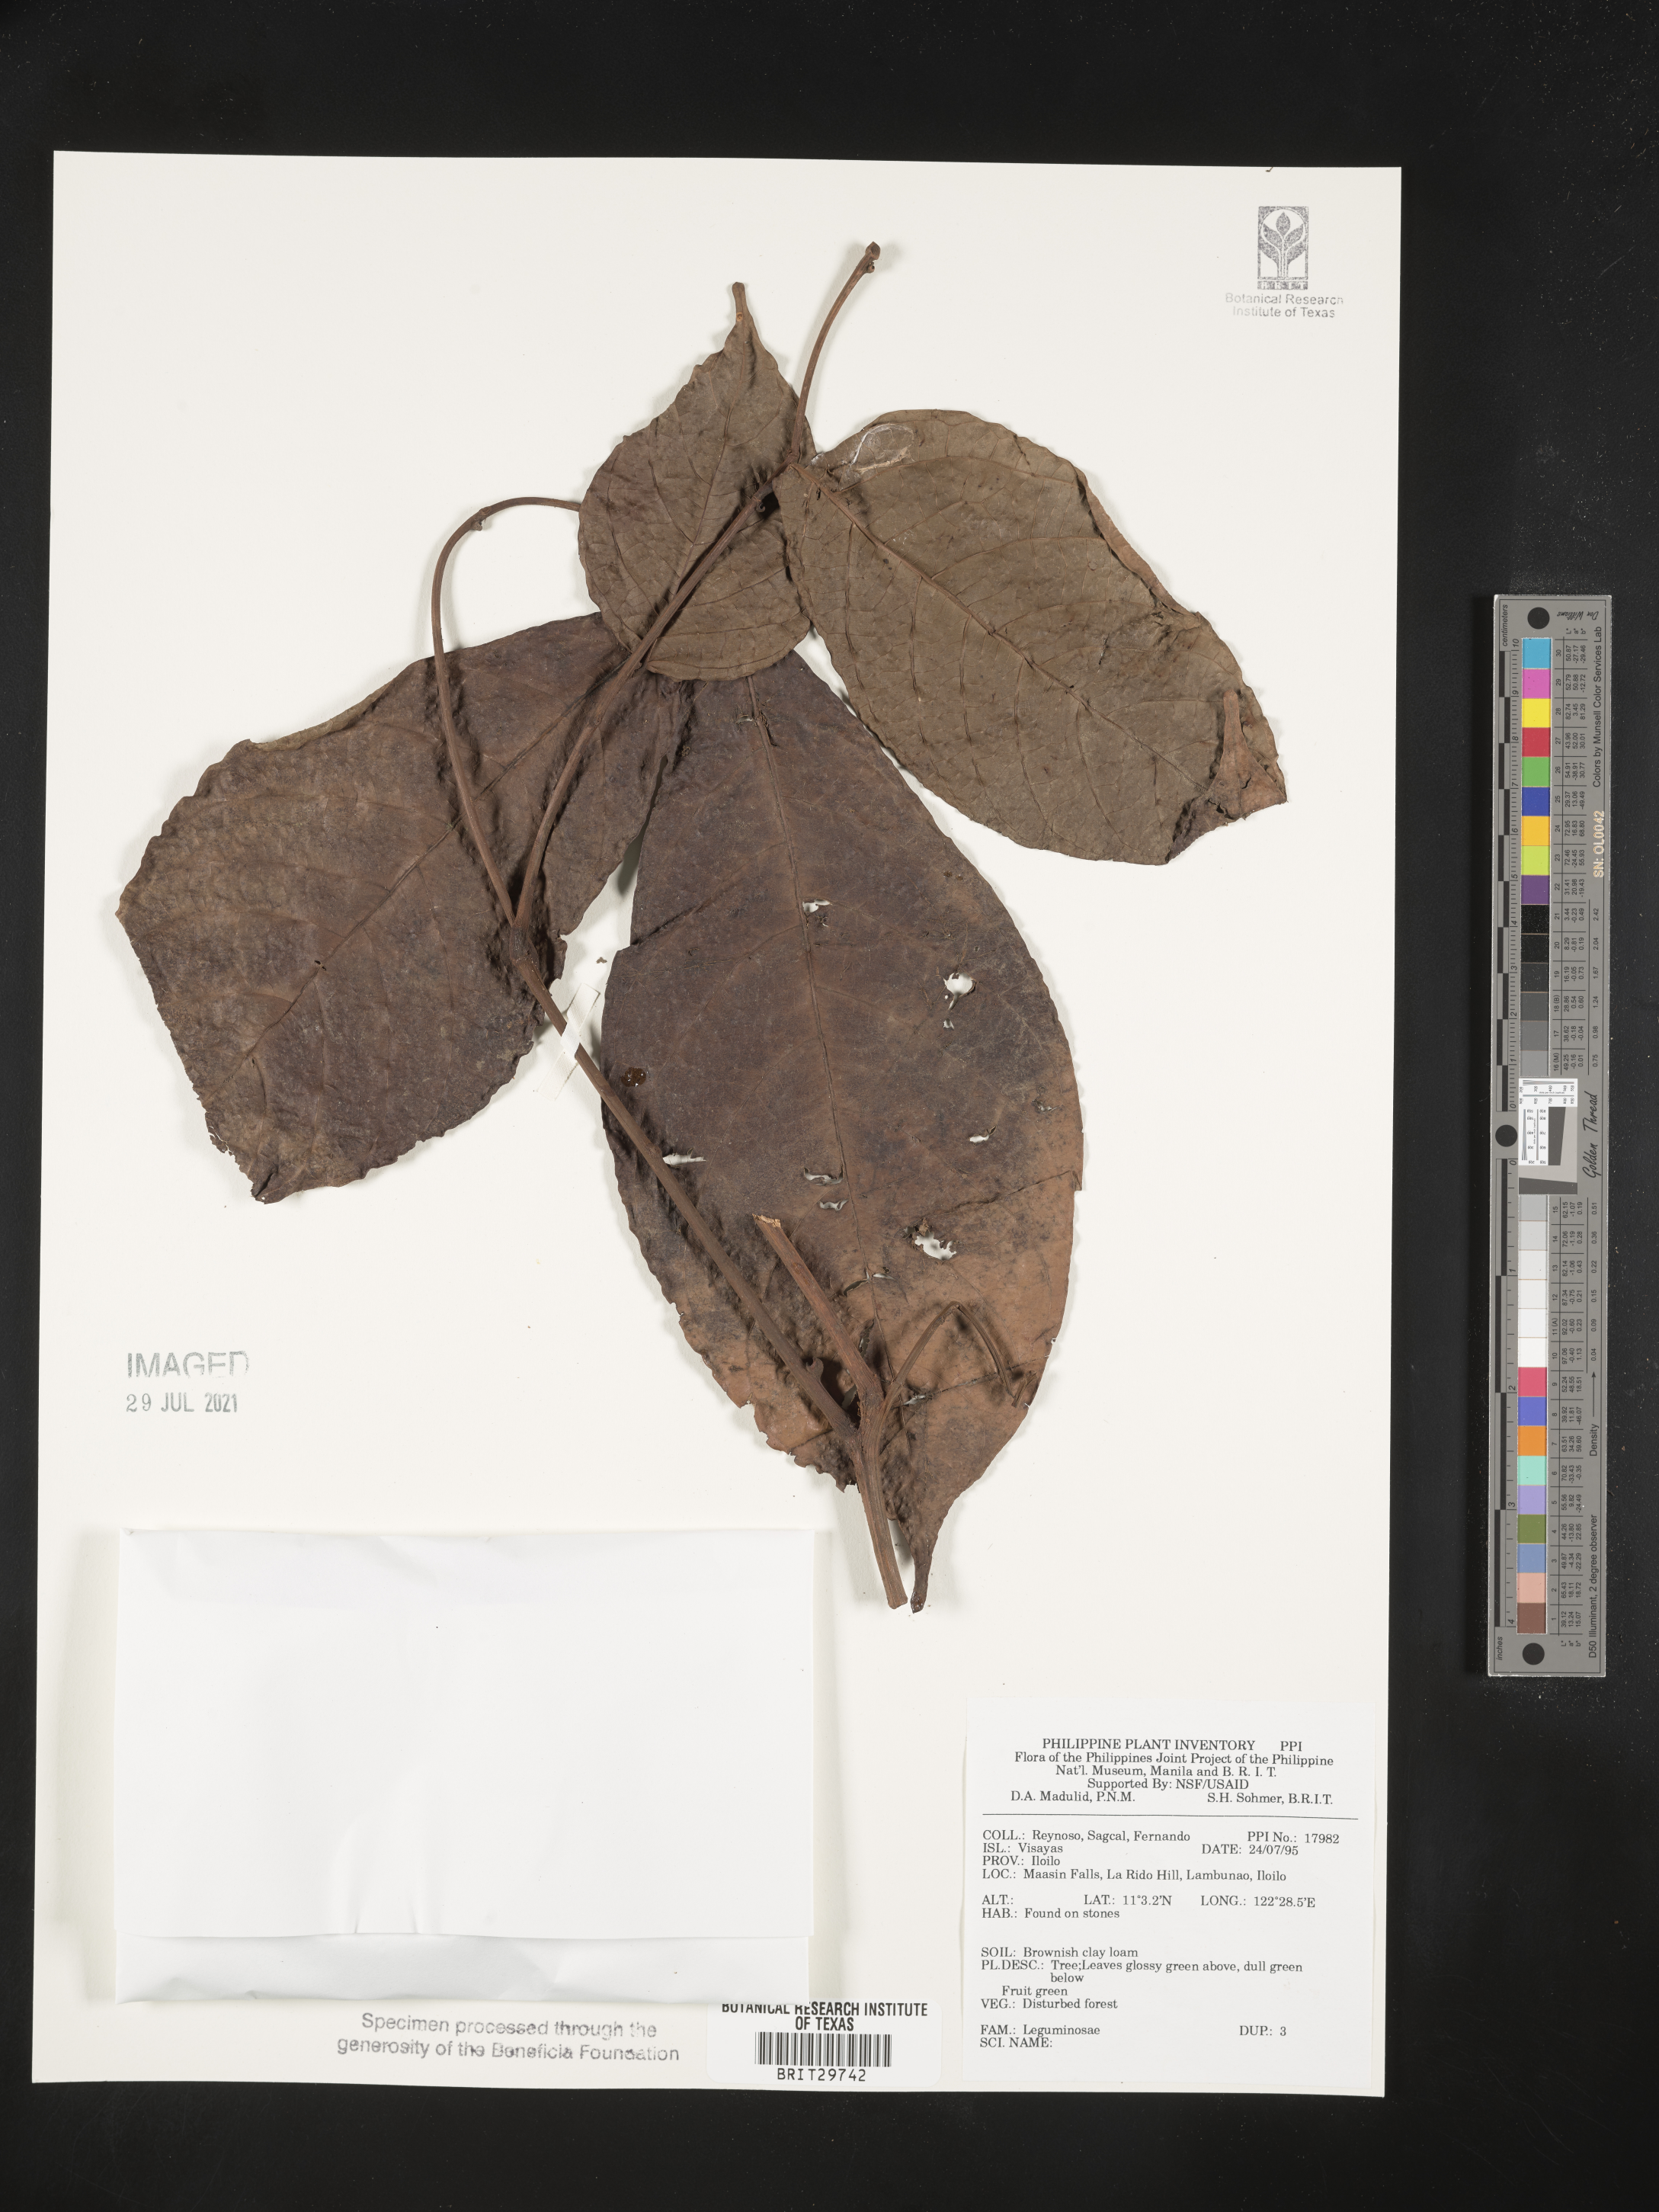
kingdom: Plantae
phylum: Tracheophyta
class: Magnoliopsida
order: Fabales
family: Fabaceae
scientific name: Fabaceae
